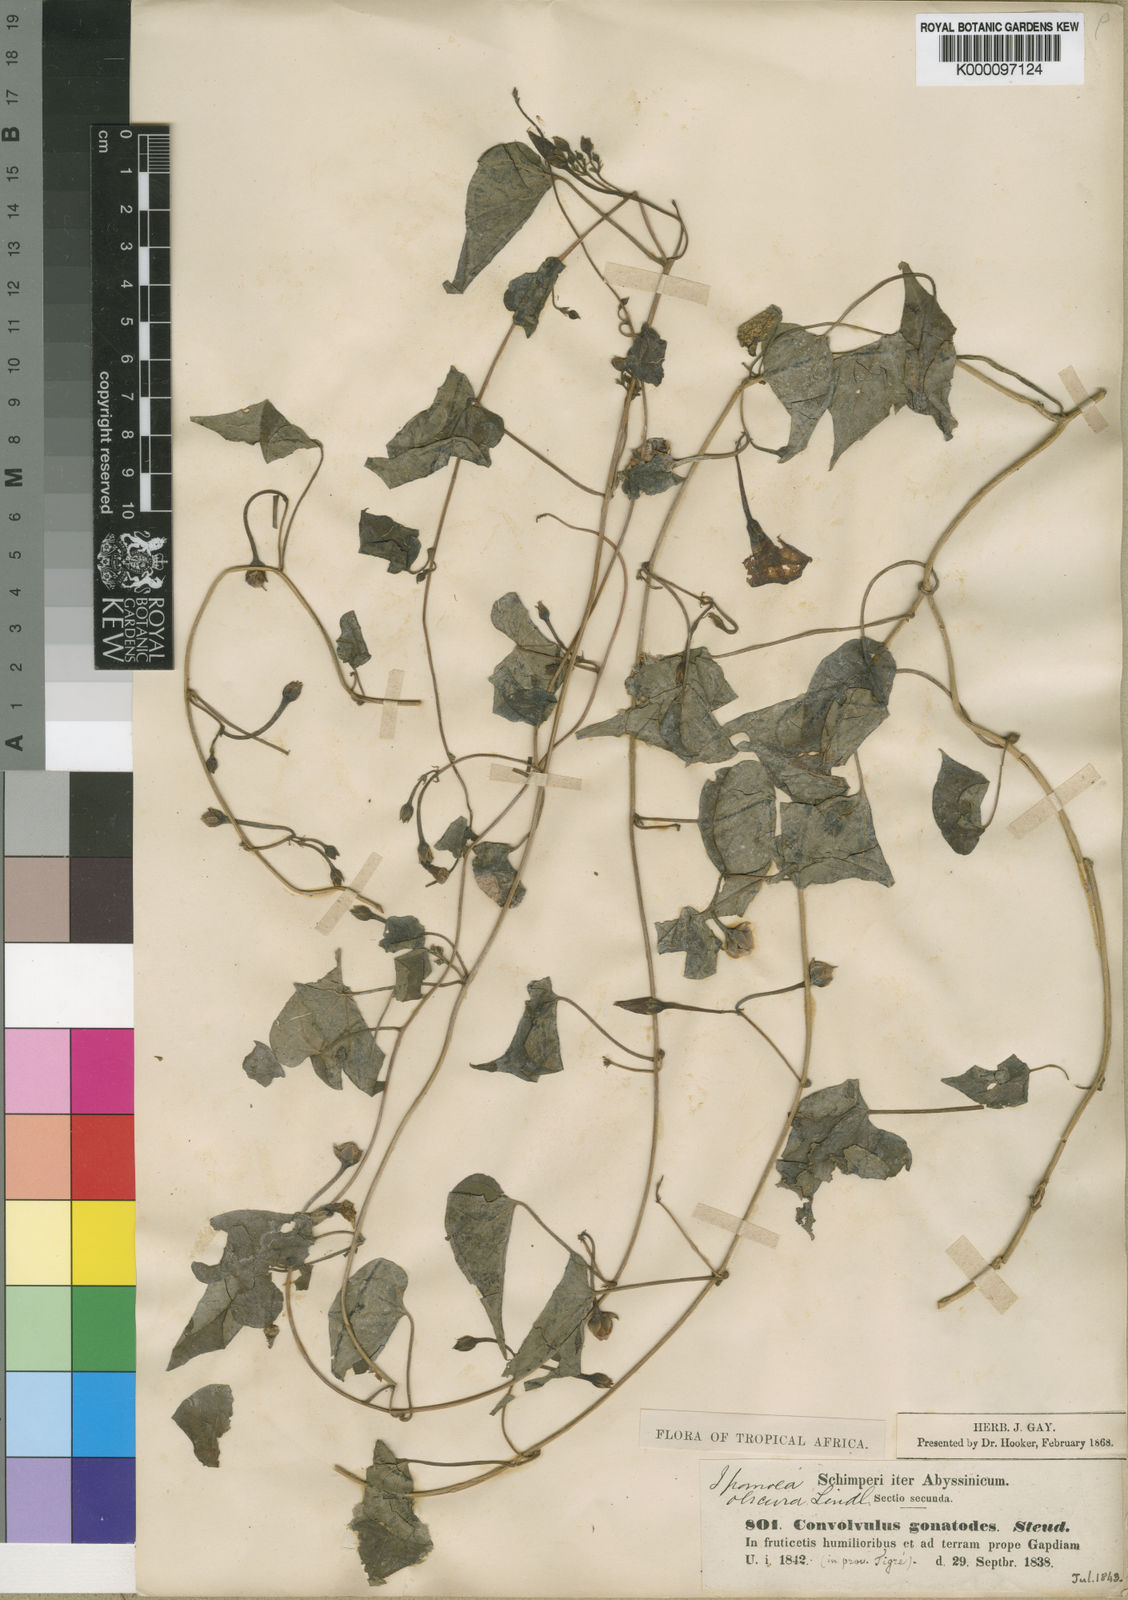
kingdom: Plantae
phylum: Tracheophyta
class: Magnoliopsida
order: Solanales
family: Convolvulaceae
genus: Ipomoea
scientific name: Ipomoea
